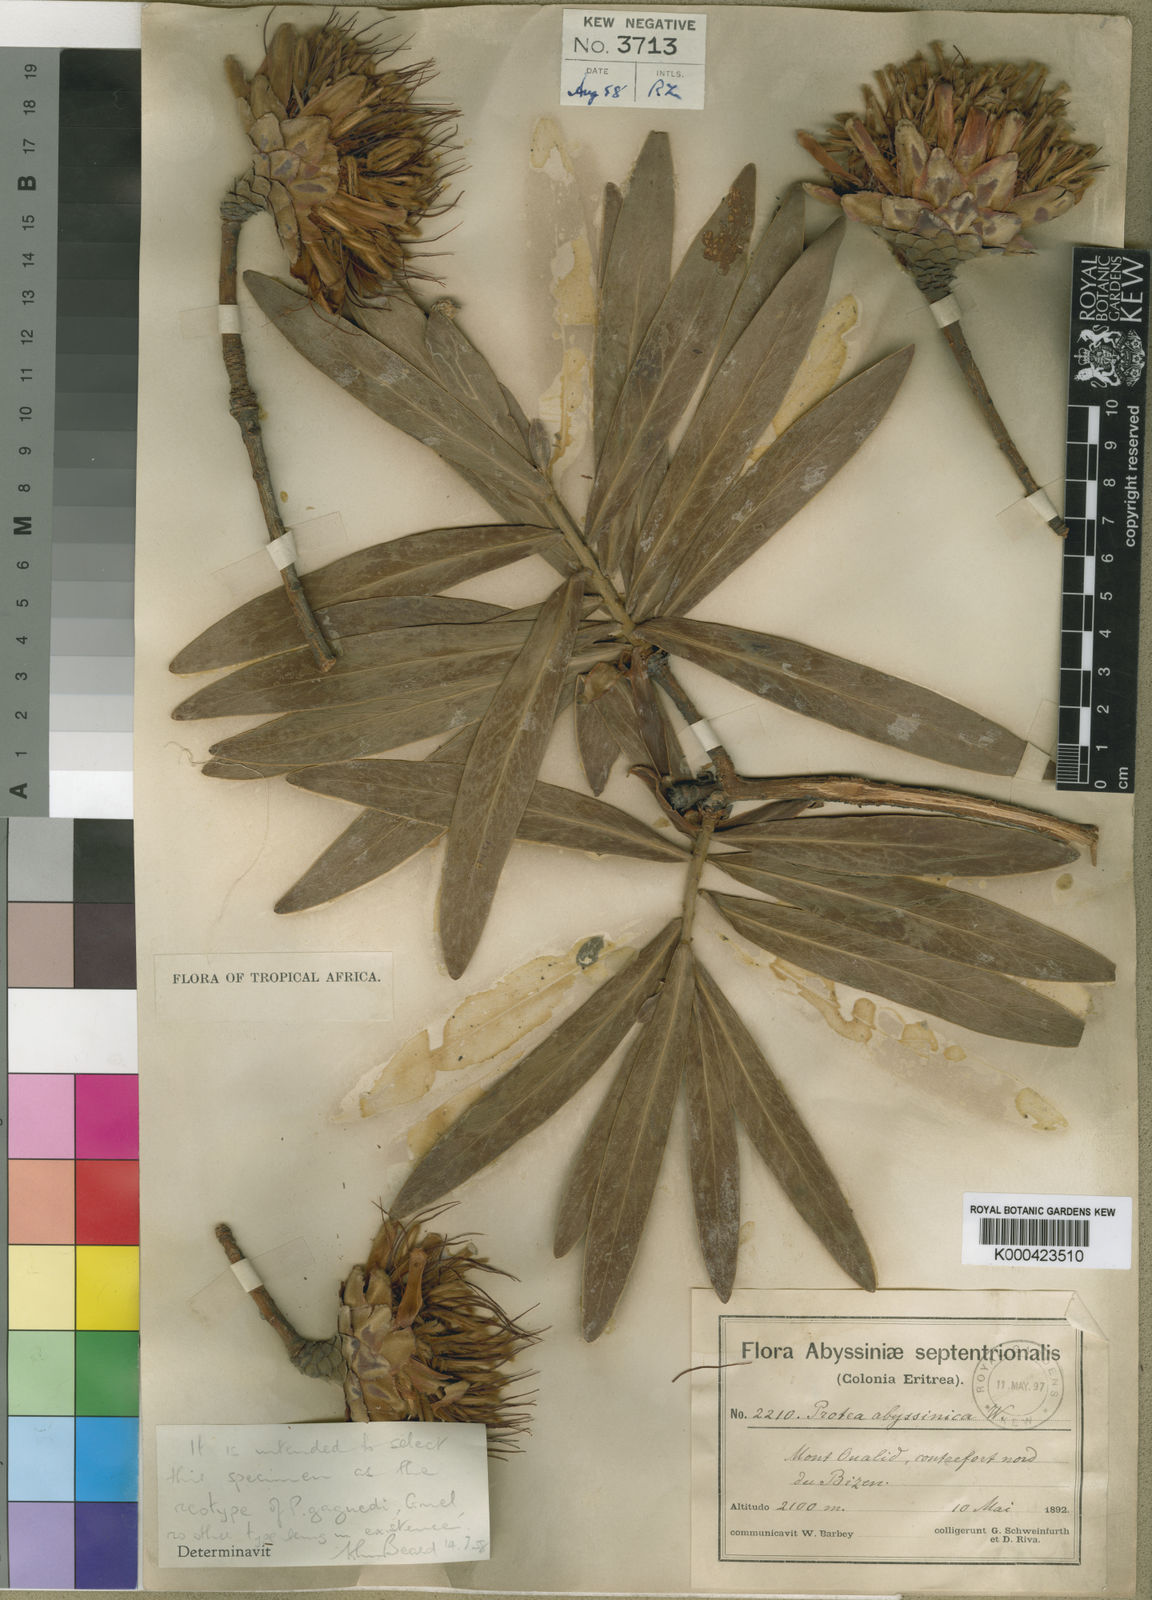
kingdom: Plantae
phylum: Tracheophyta
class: Magnoliopsida
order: Proteales
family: Proteaceae
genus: Protea
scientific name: Protea gaguedi
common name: African protea
